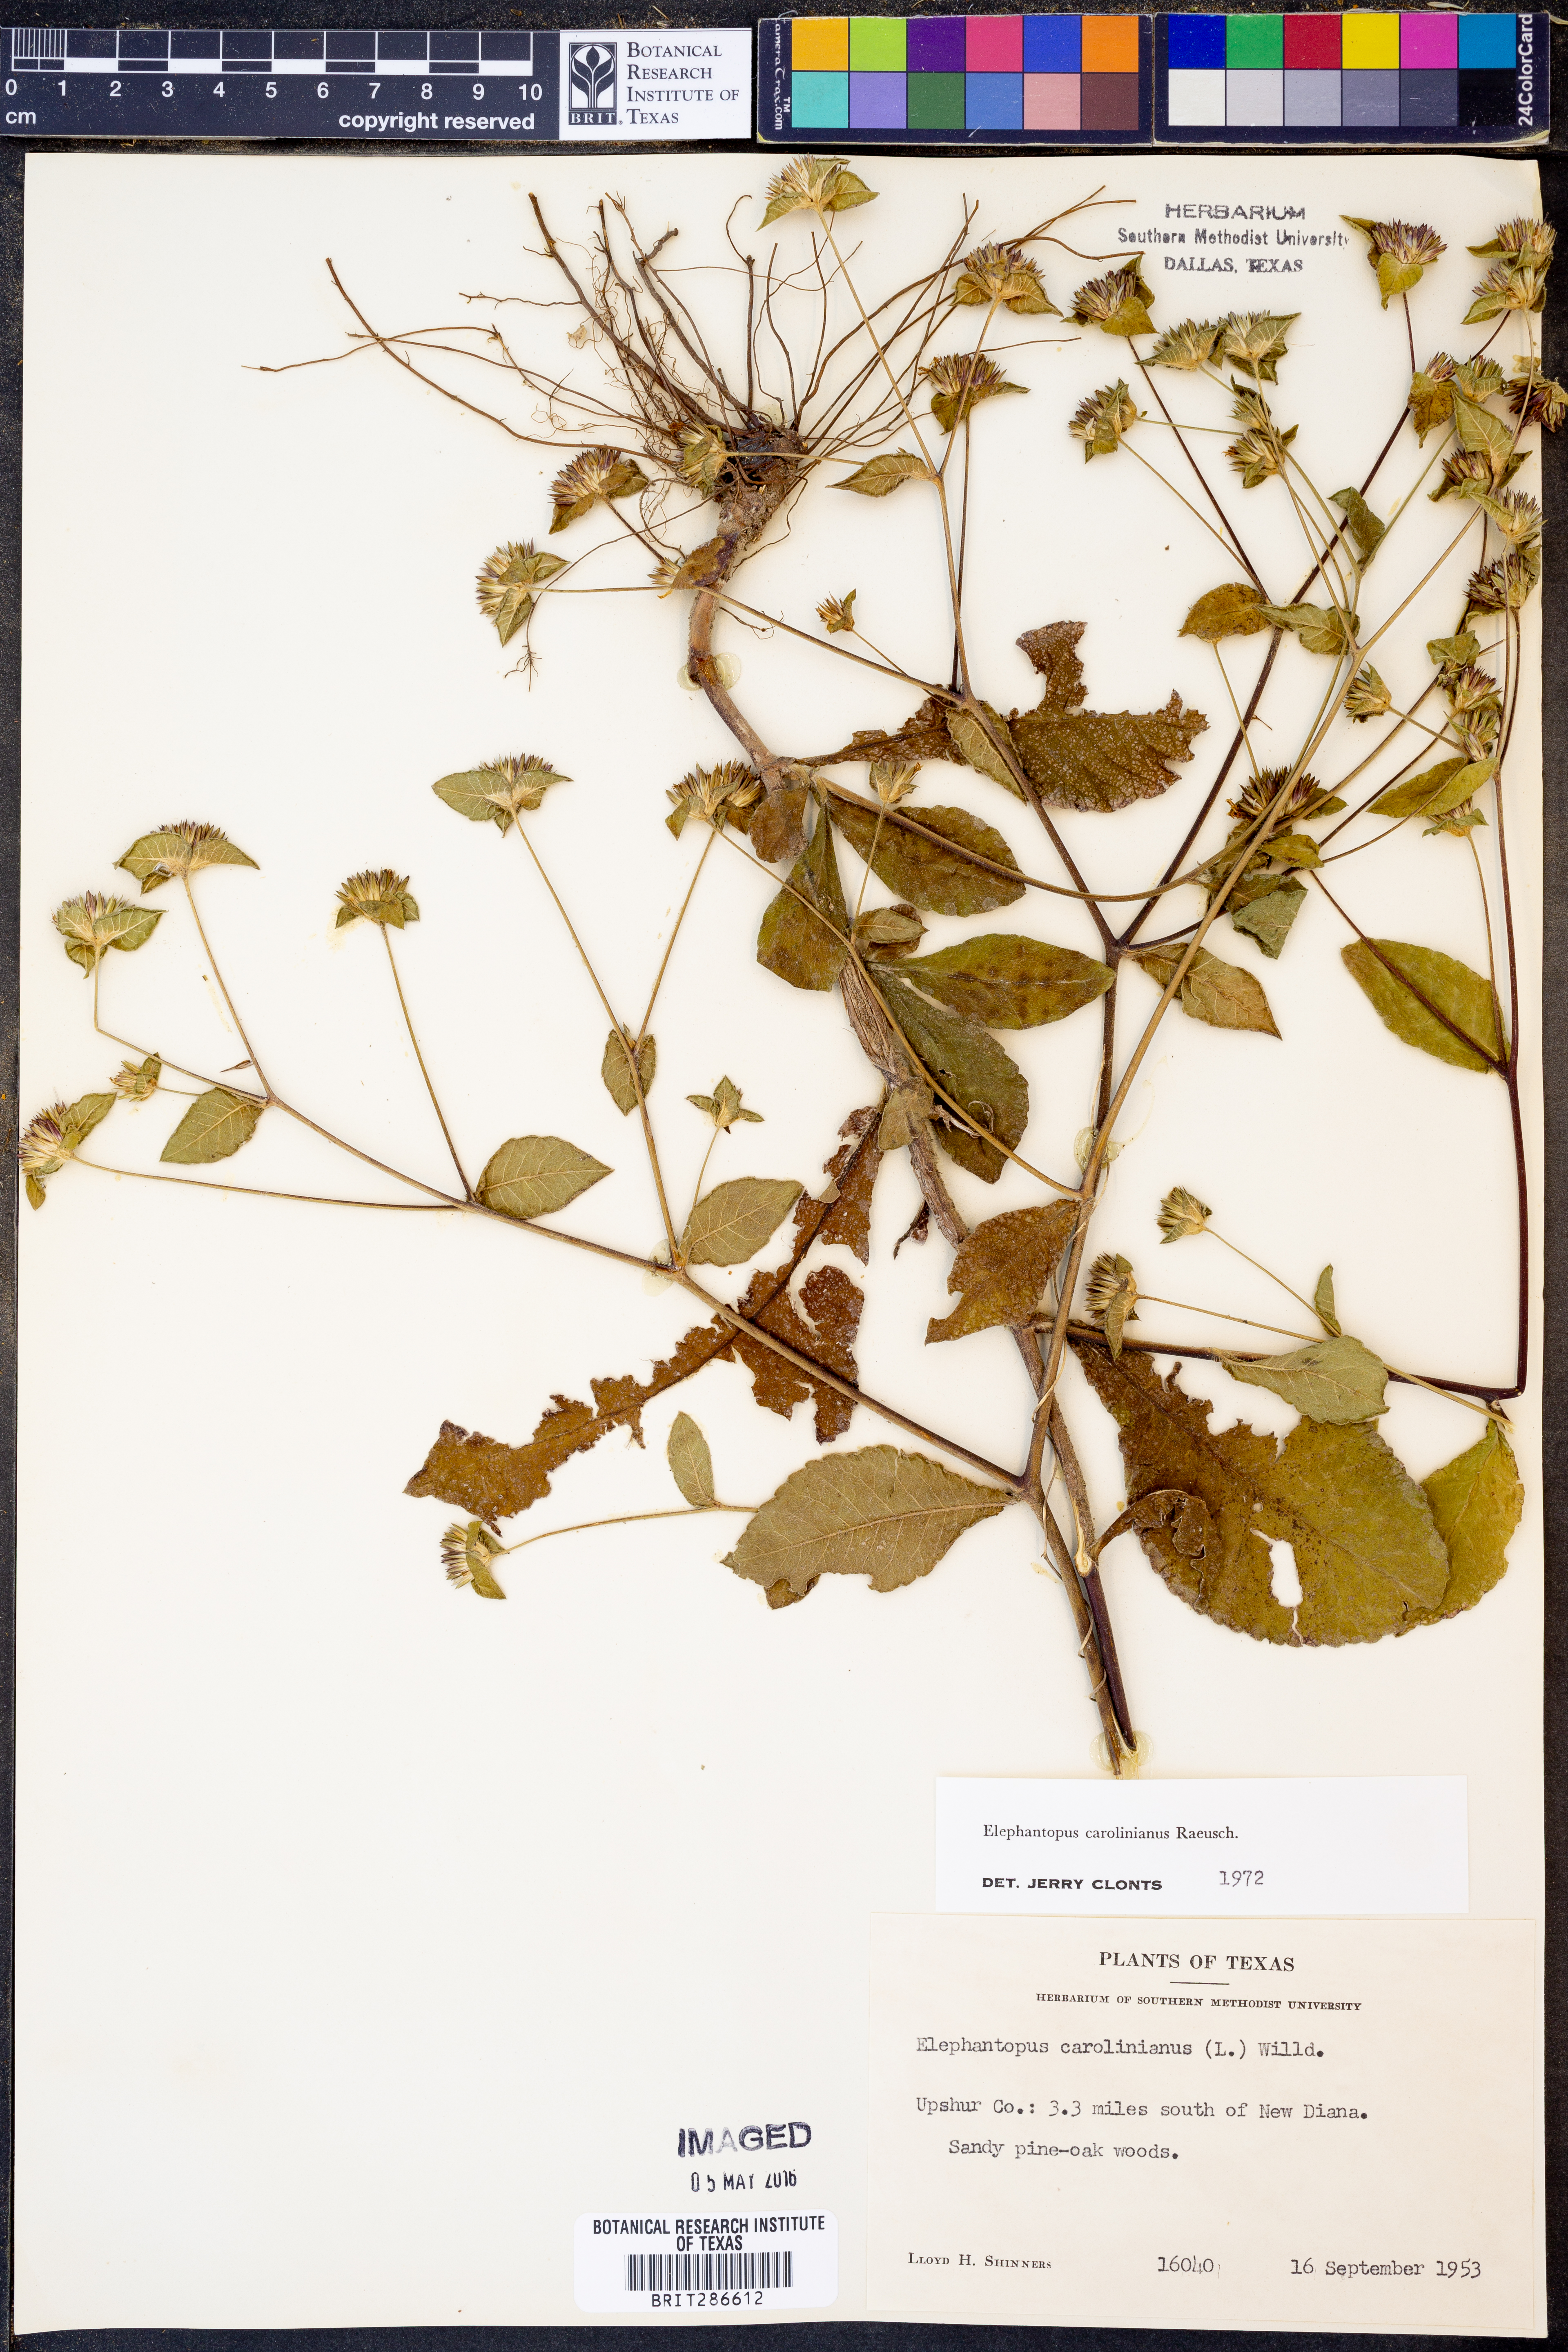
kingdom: Plantae
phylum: Tracheophyta
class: Magnoliopsida
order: Asterales
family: Asteraceae
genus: Elephantopus
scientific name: Elephantopus carolinianus
